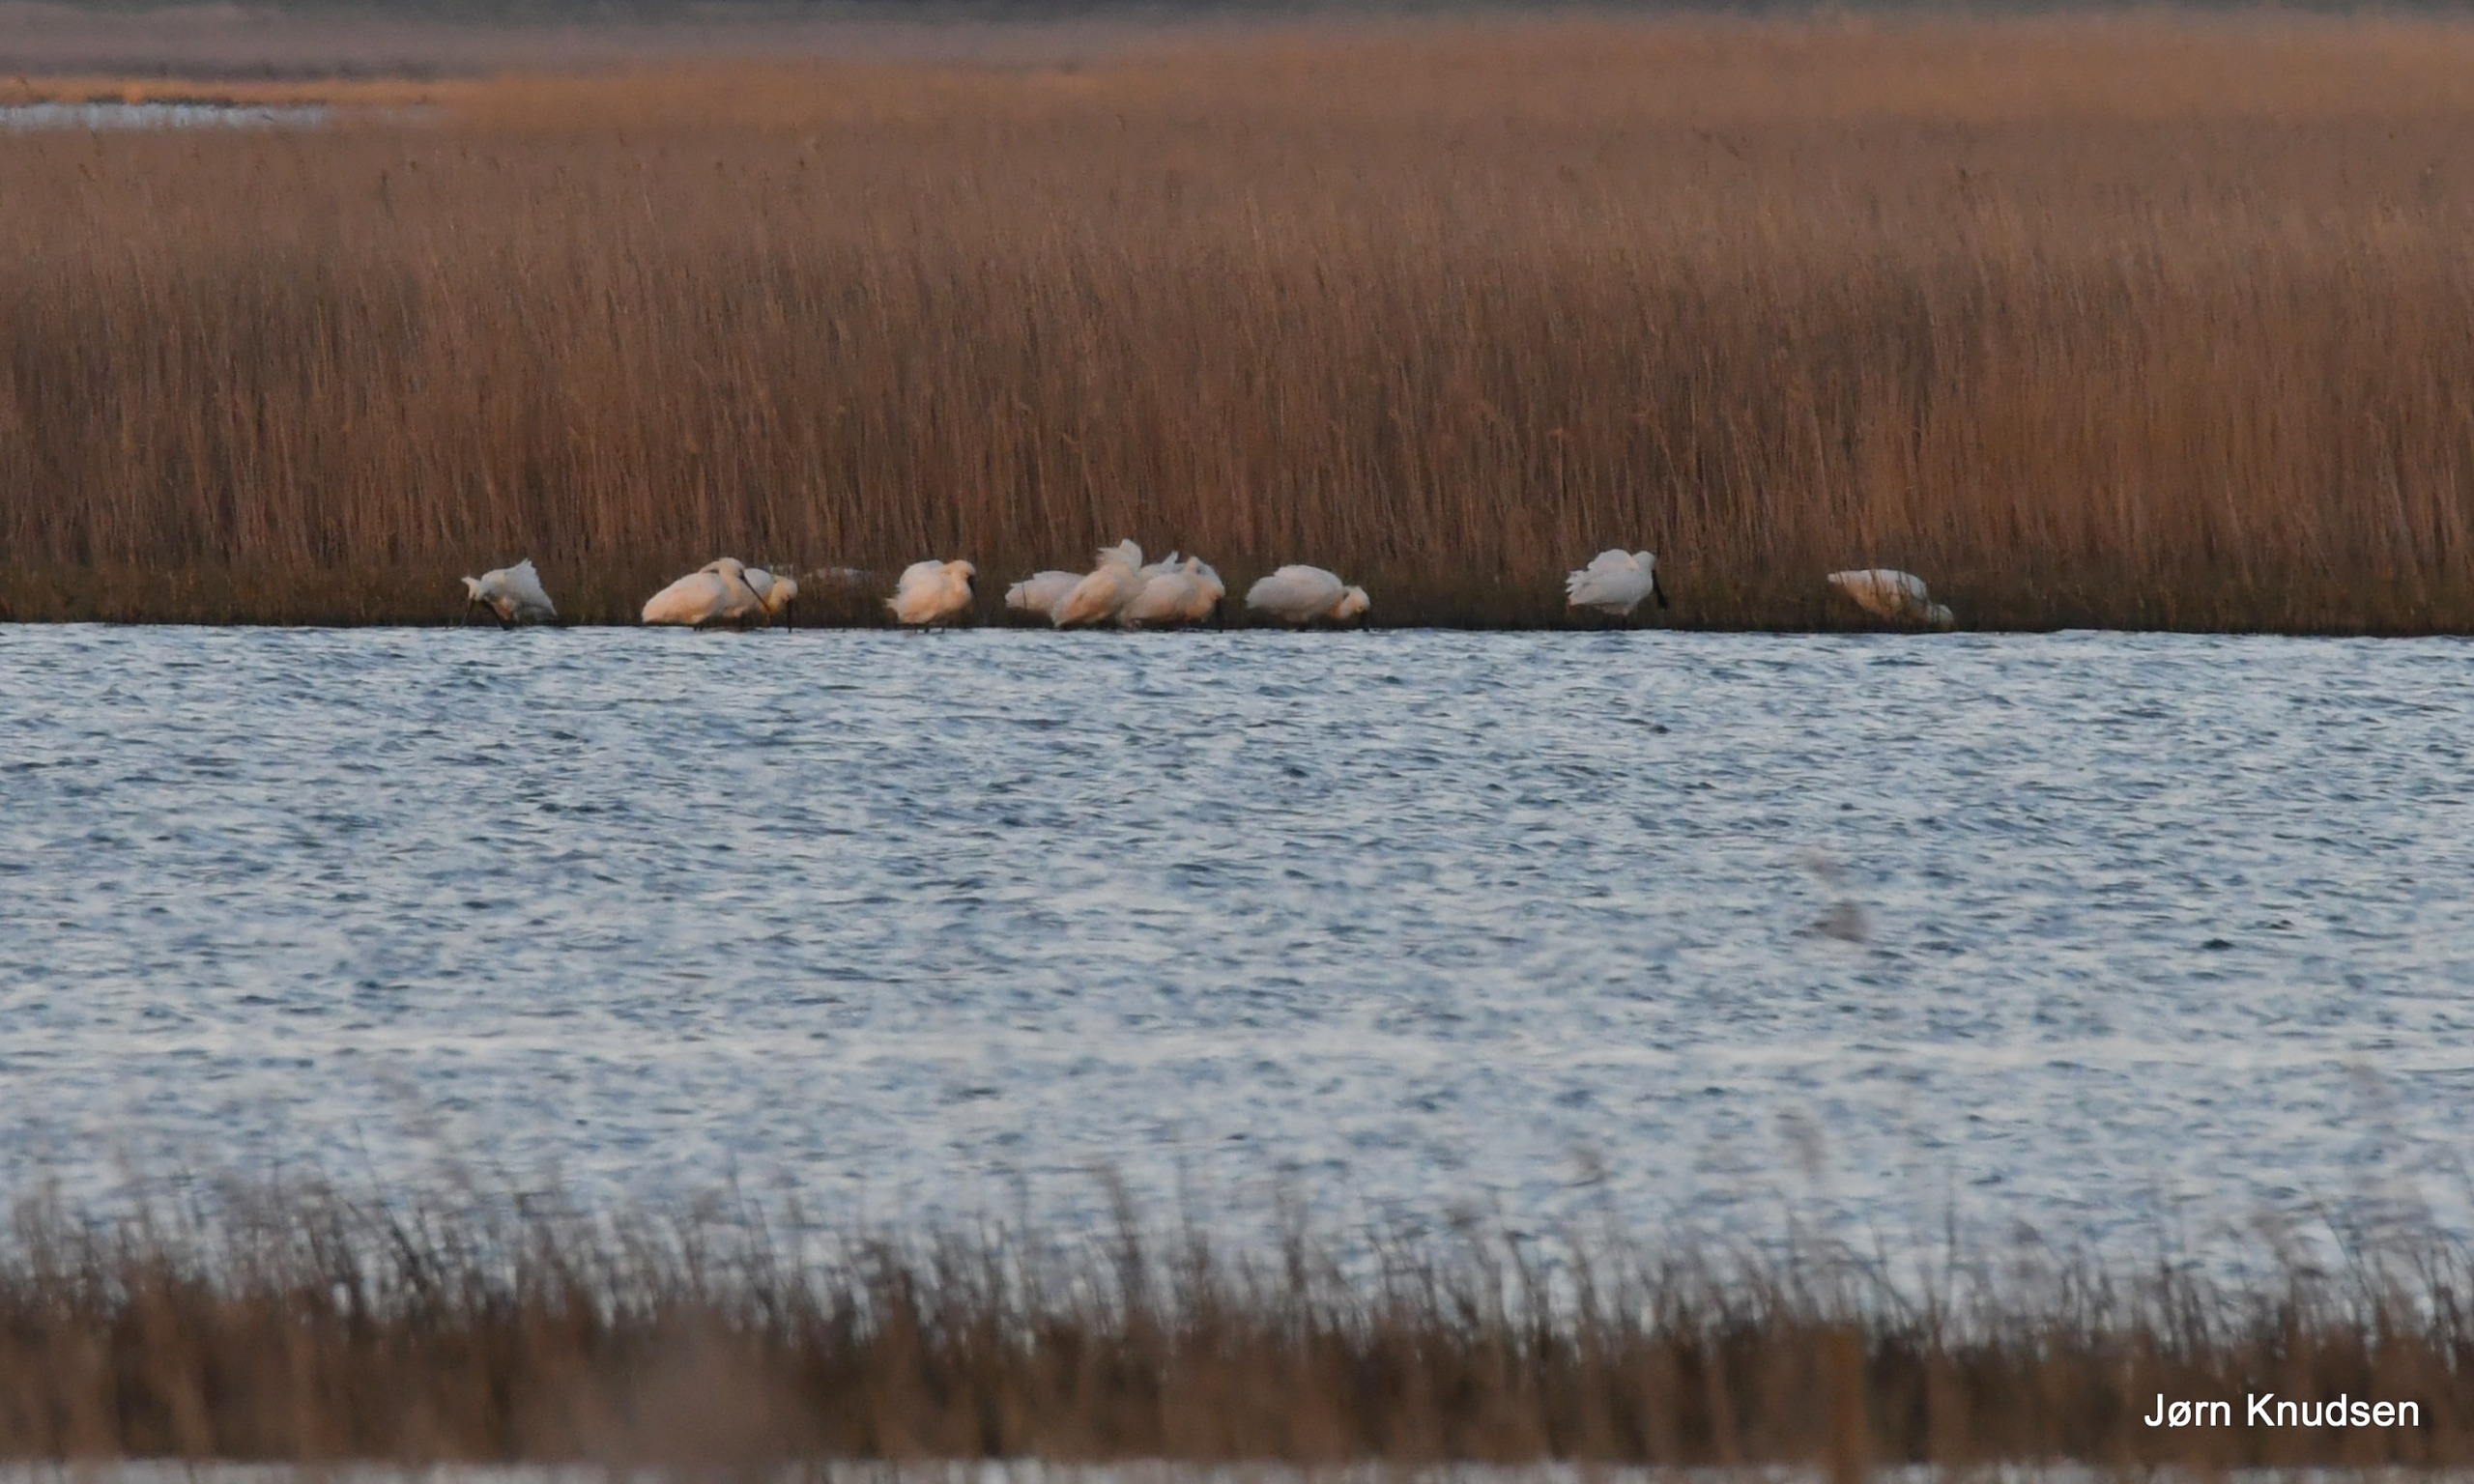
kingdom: Animalia
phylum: Chordata
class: Aves
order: Pelecaniformes
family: Threskiornithidae
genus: Platalea
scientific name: Platalea leucorodia
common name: Skestork
